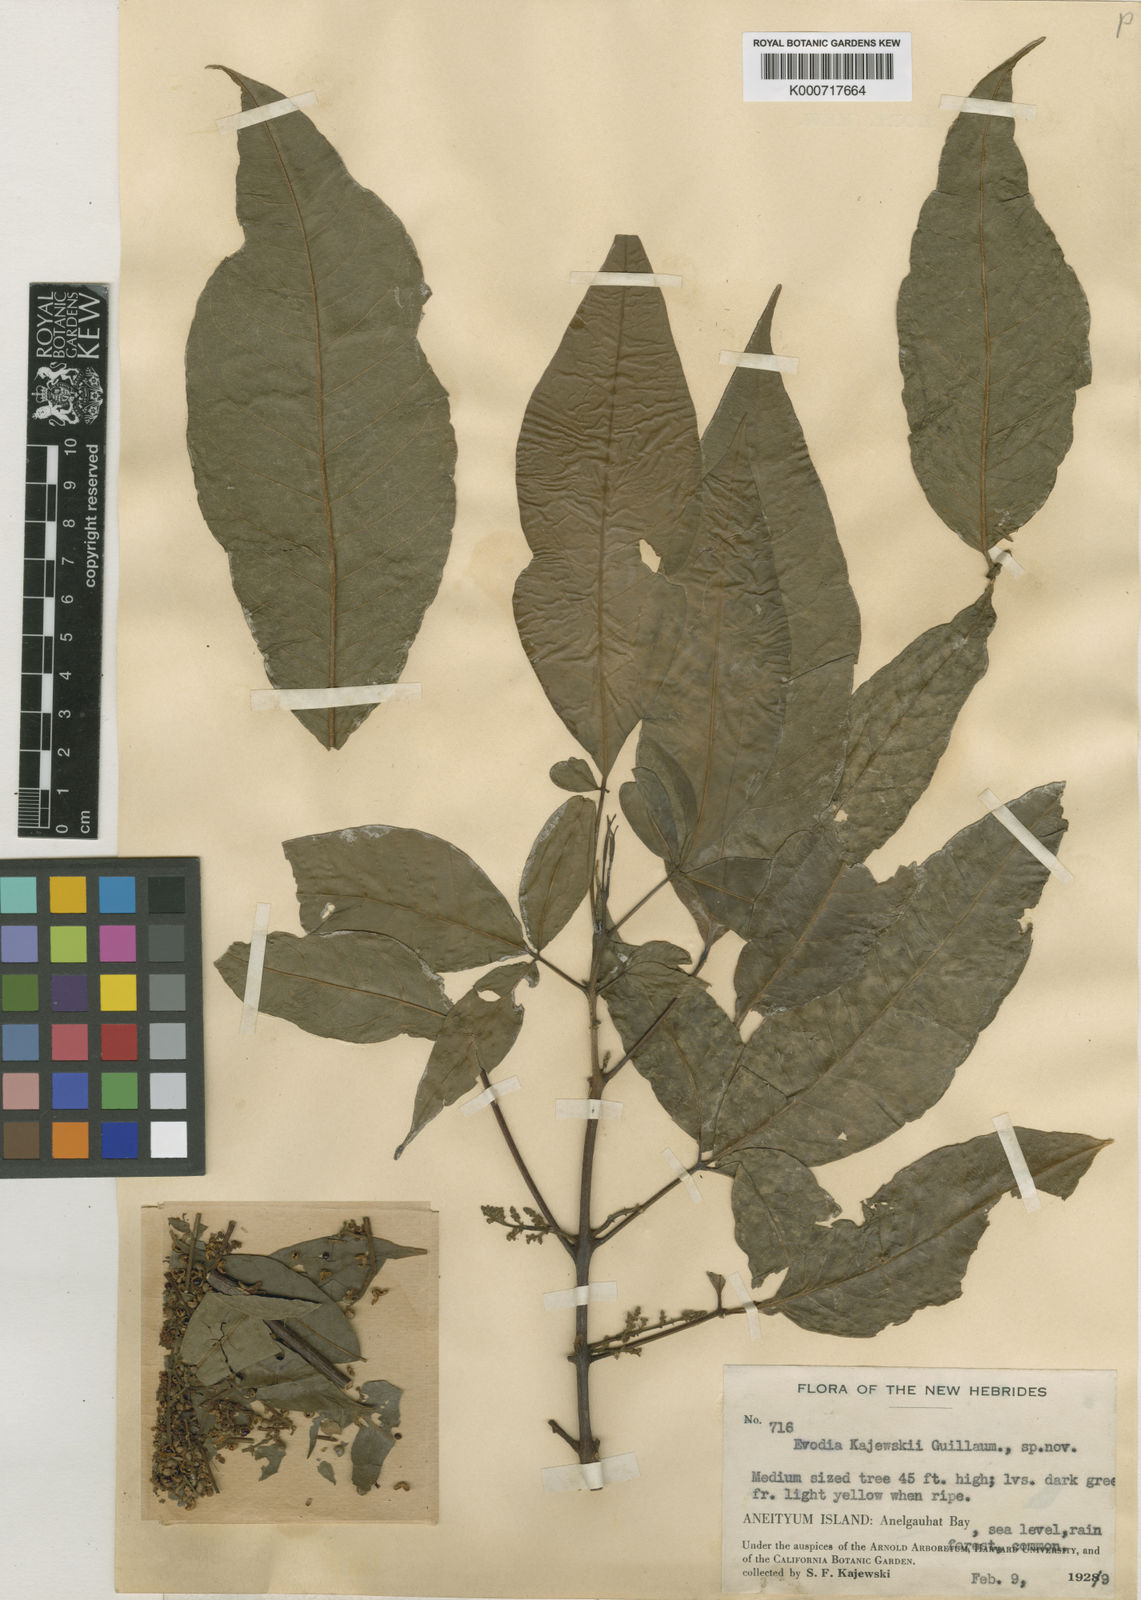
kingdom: Plantae
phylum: Tracheophyta
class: Magnoliopsida
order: Sapindales
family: Rutaceae
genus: Melicope
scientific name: Melicope denhamii
